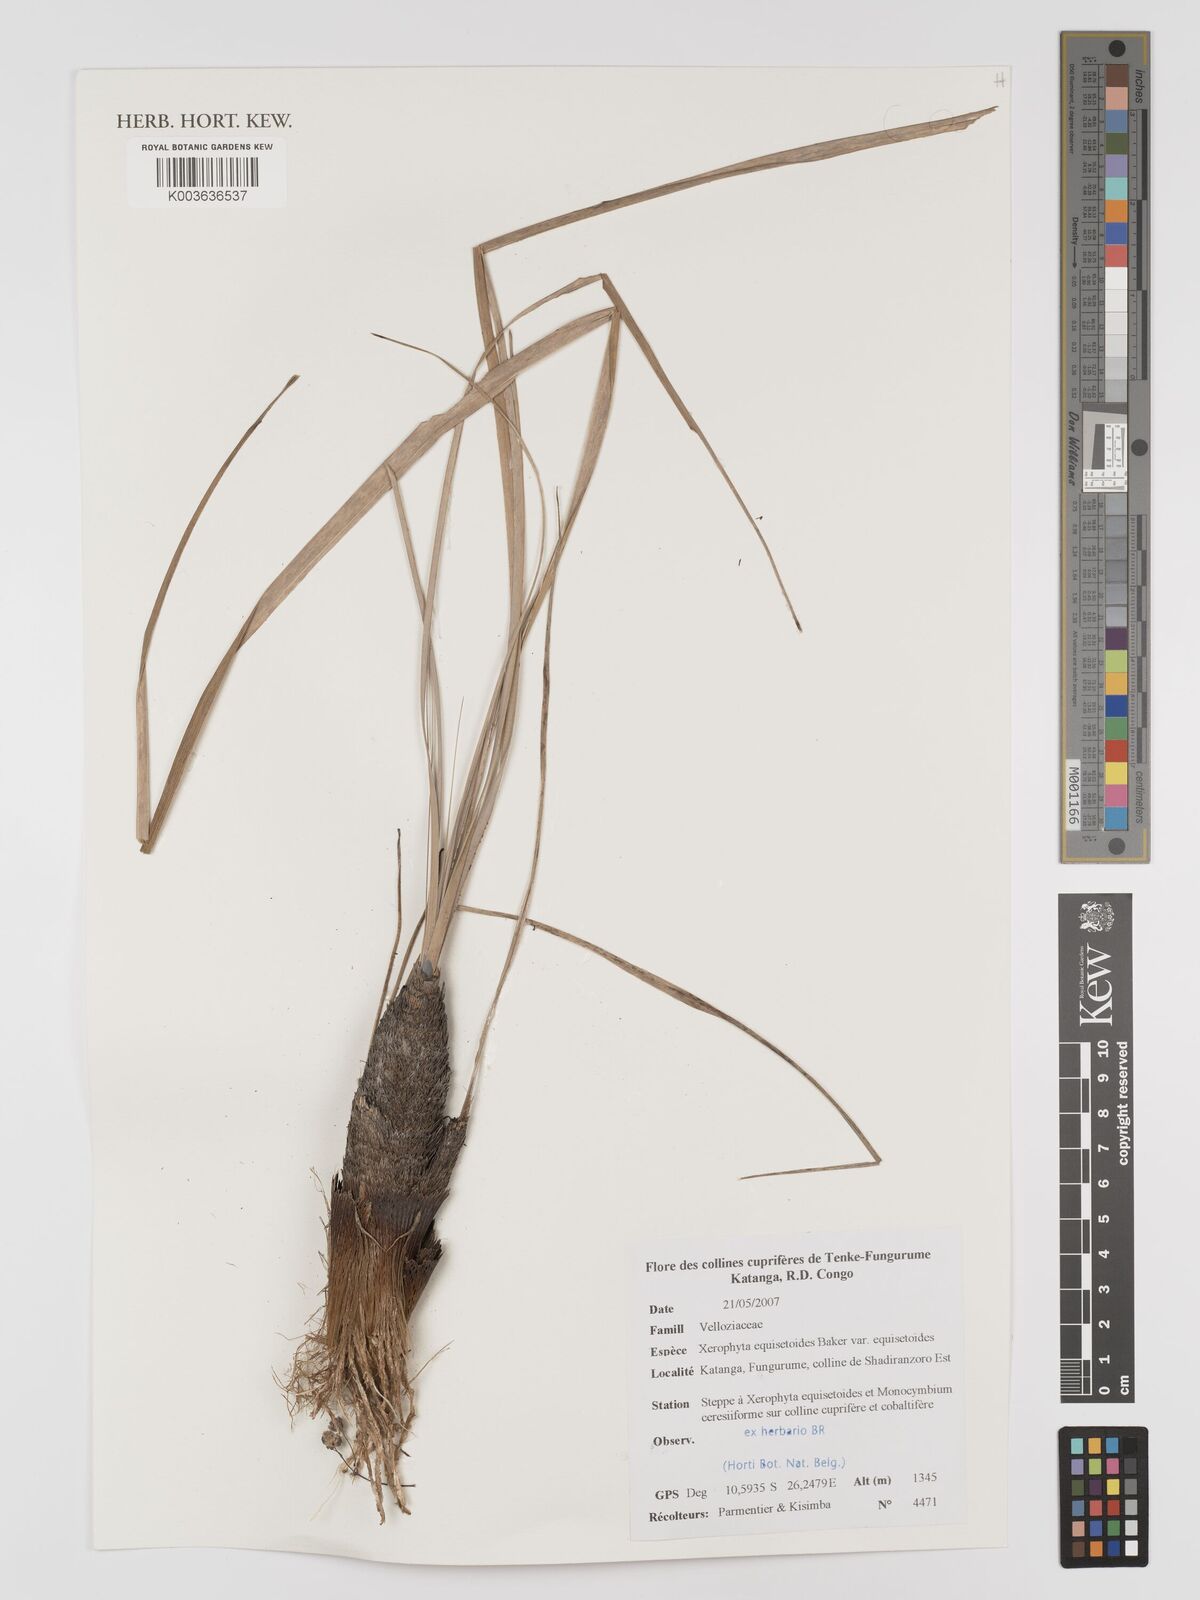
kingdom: Plantae
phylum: Tracheophyta
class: Liliopsida
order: Pandanales
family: Velloziaceae
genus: Xerophyta
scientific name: Xerophyta equisetoides
